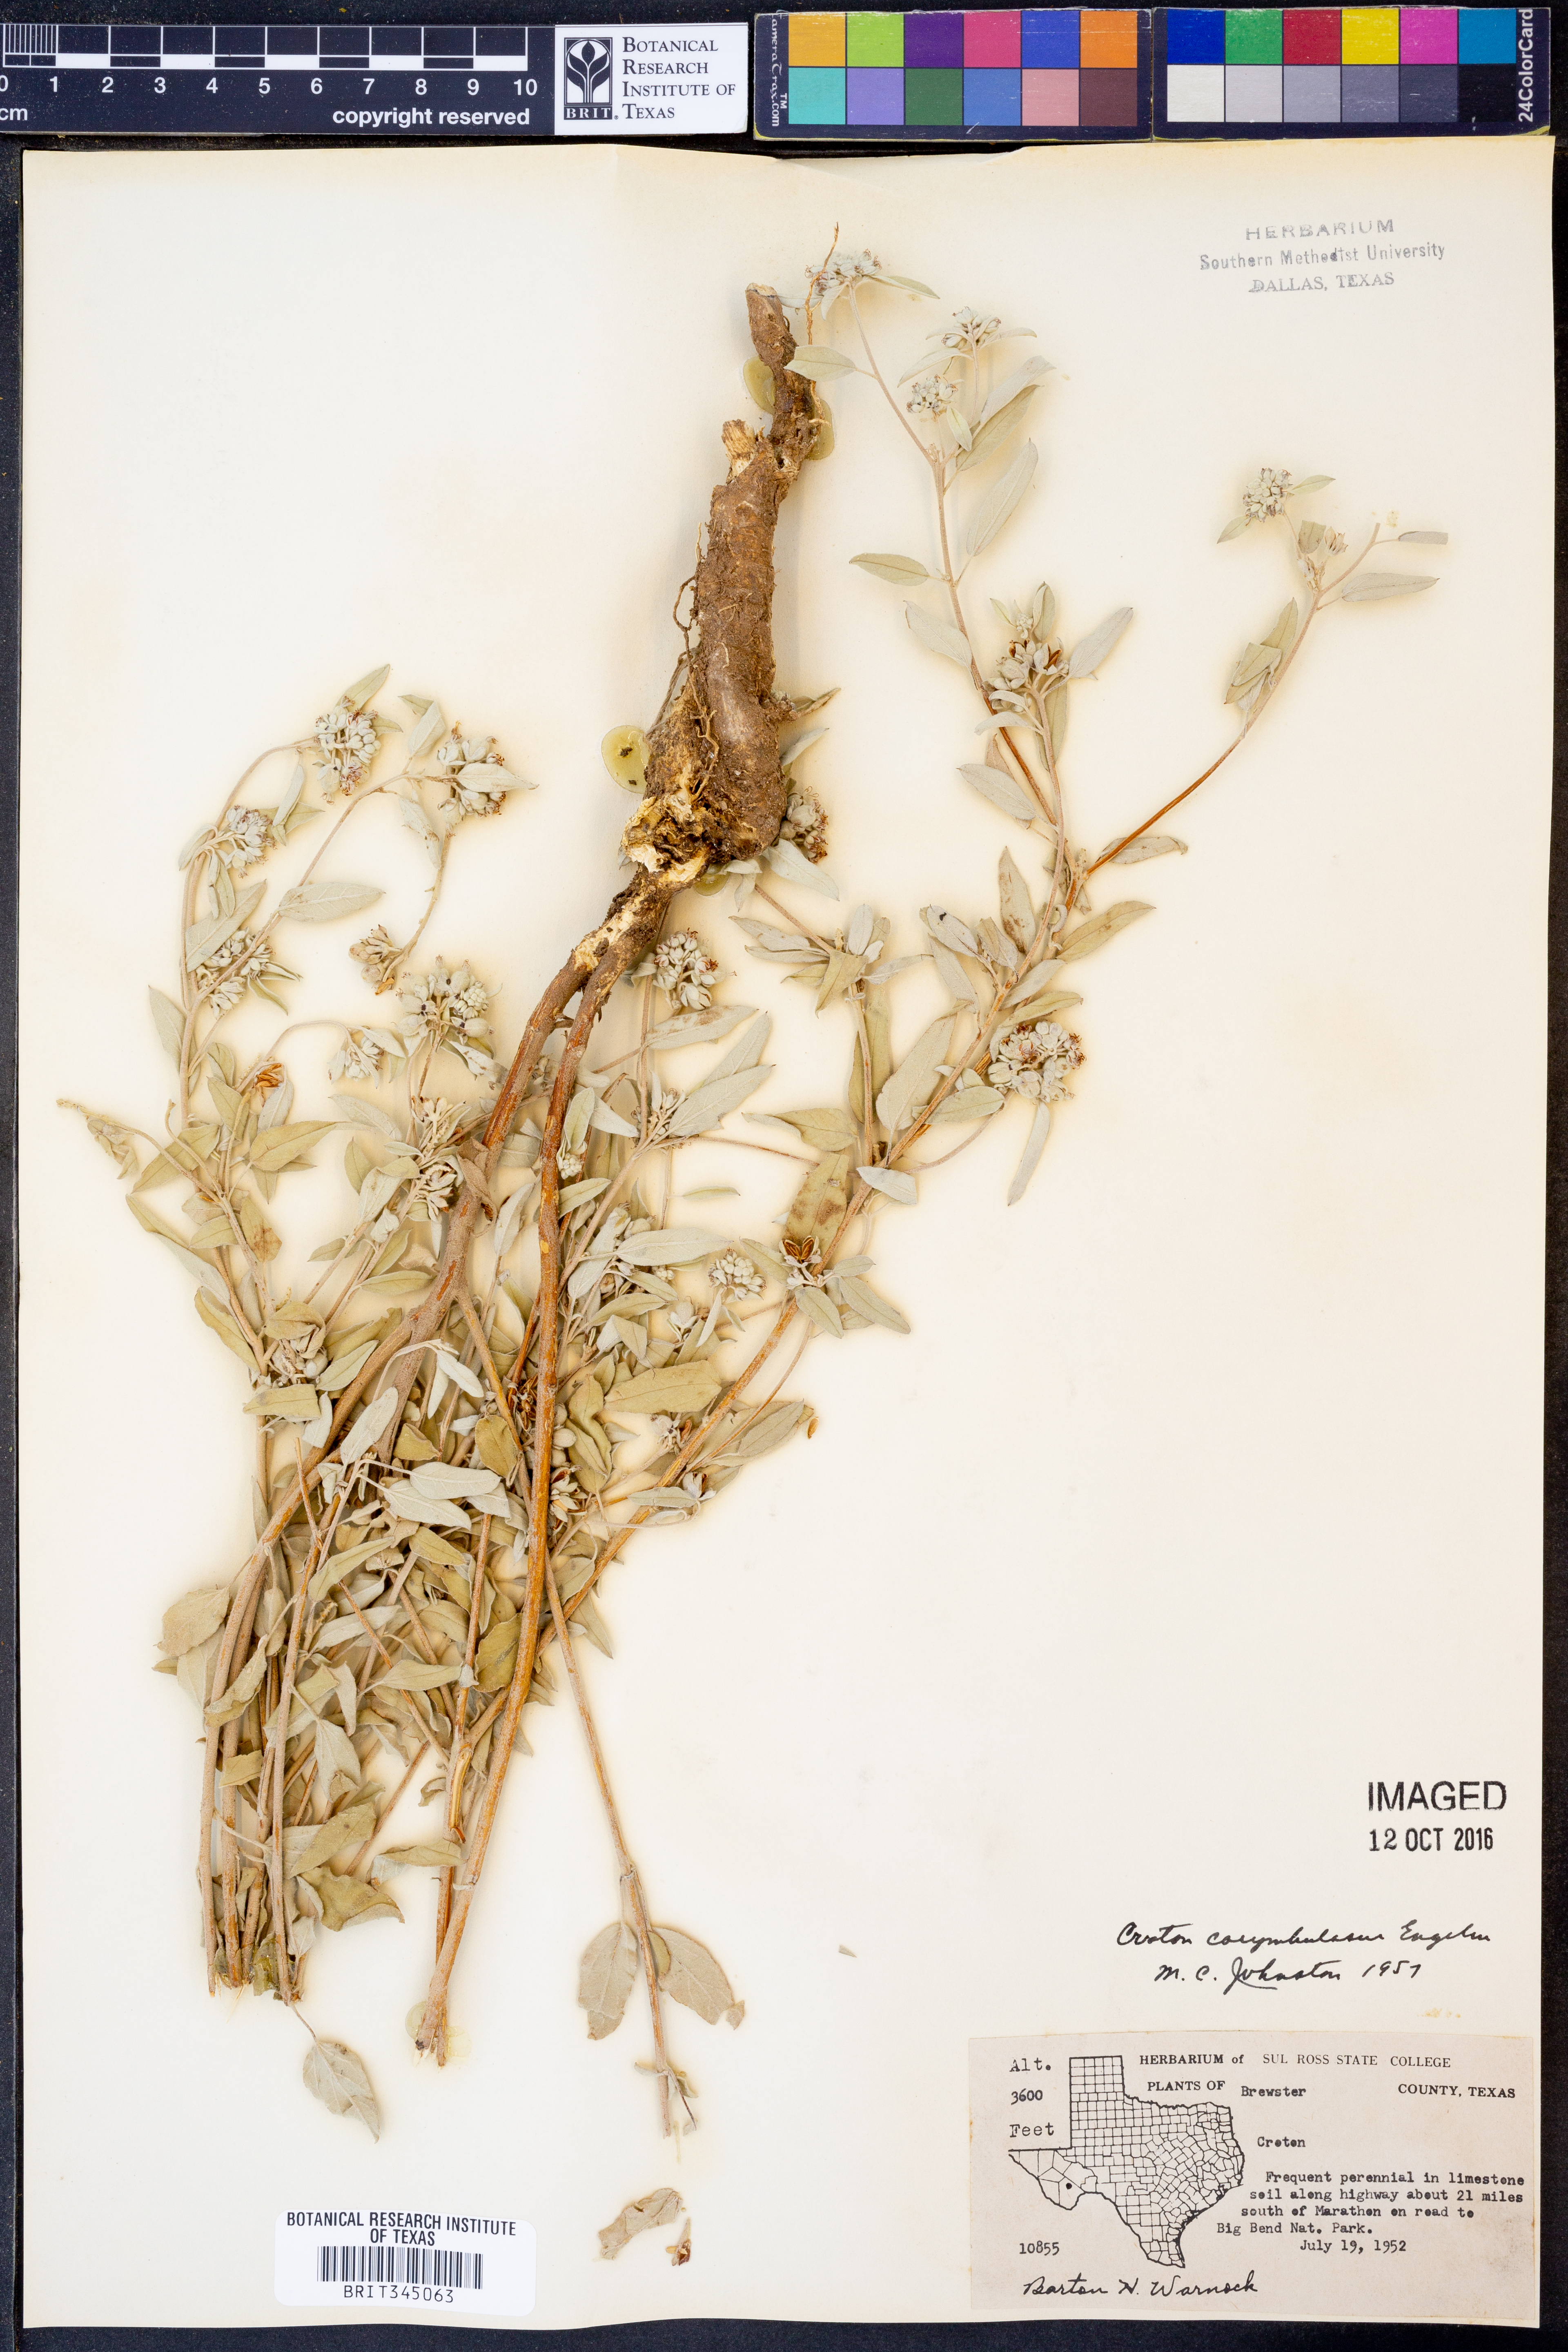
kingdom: Plantae
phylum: Tracheophyta
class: Magnoliopsida
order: Malpighiales
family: Euphorbiaceae
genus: Croton
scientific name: Croton pottsii
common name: Leatherweed
